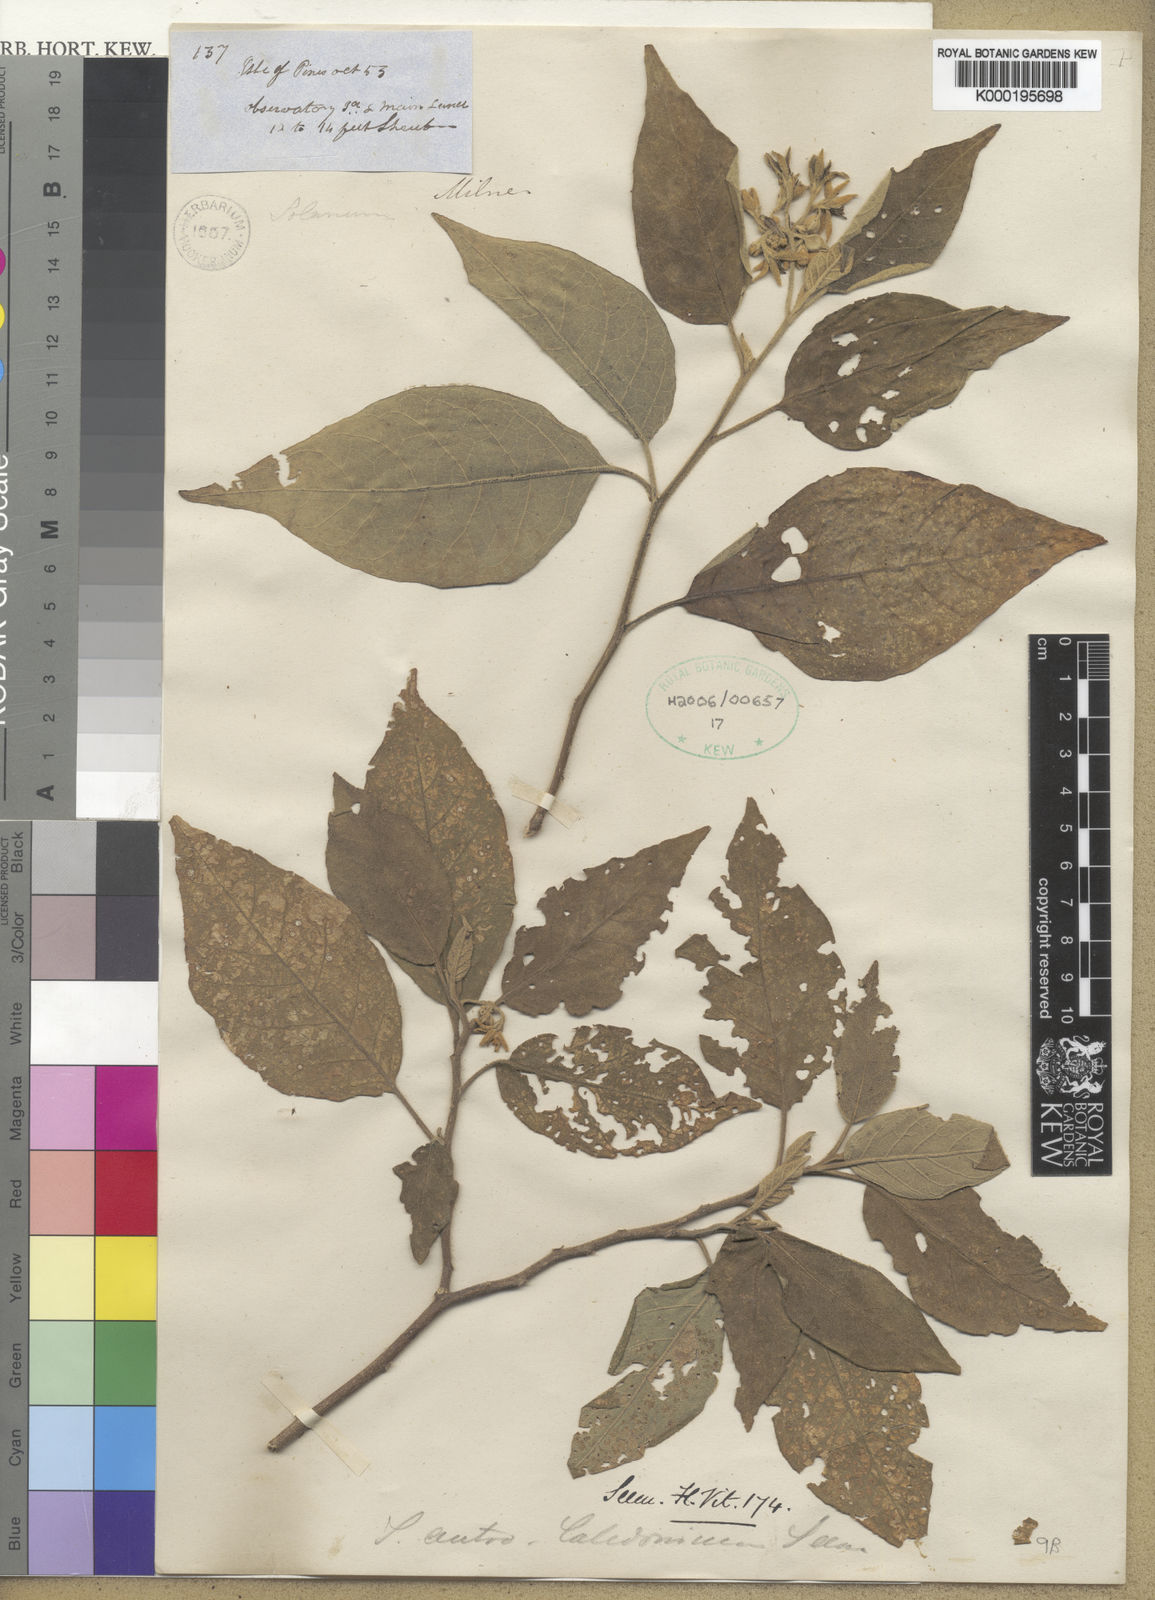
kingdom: Plantae
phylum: Tracheophyta
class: Magnoliopsida
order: Solanales
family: Solanaceae
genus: Solanum
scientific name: Solanum austrocaledonicum
